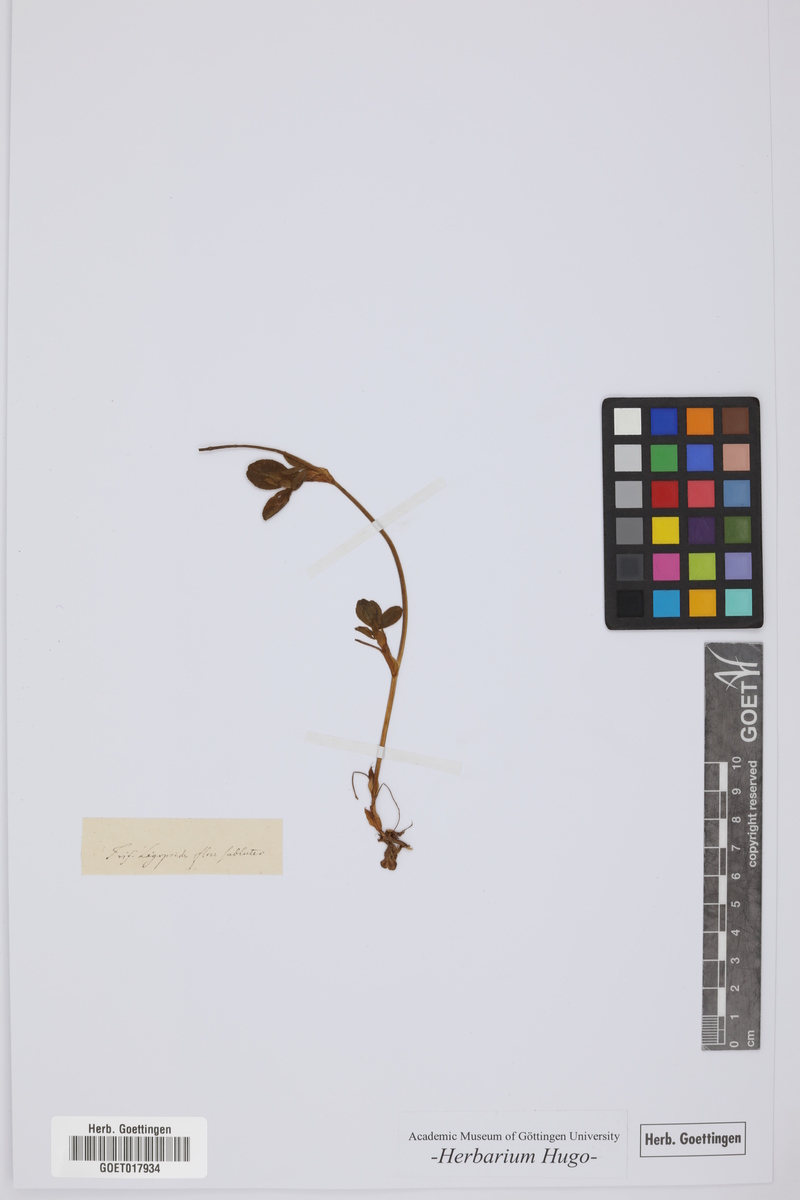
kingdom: Plantae
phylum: Tracheophyta
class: Magnoliopsida
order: Fabales
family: Fabaceae
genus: Trifolium
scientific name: Trifolium
